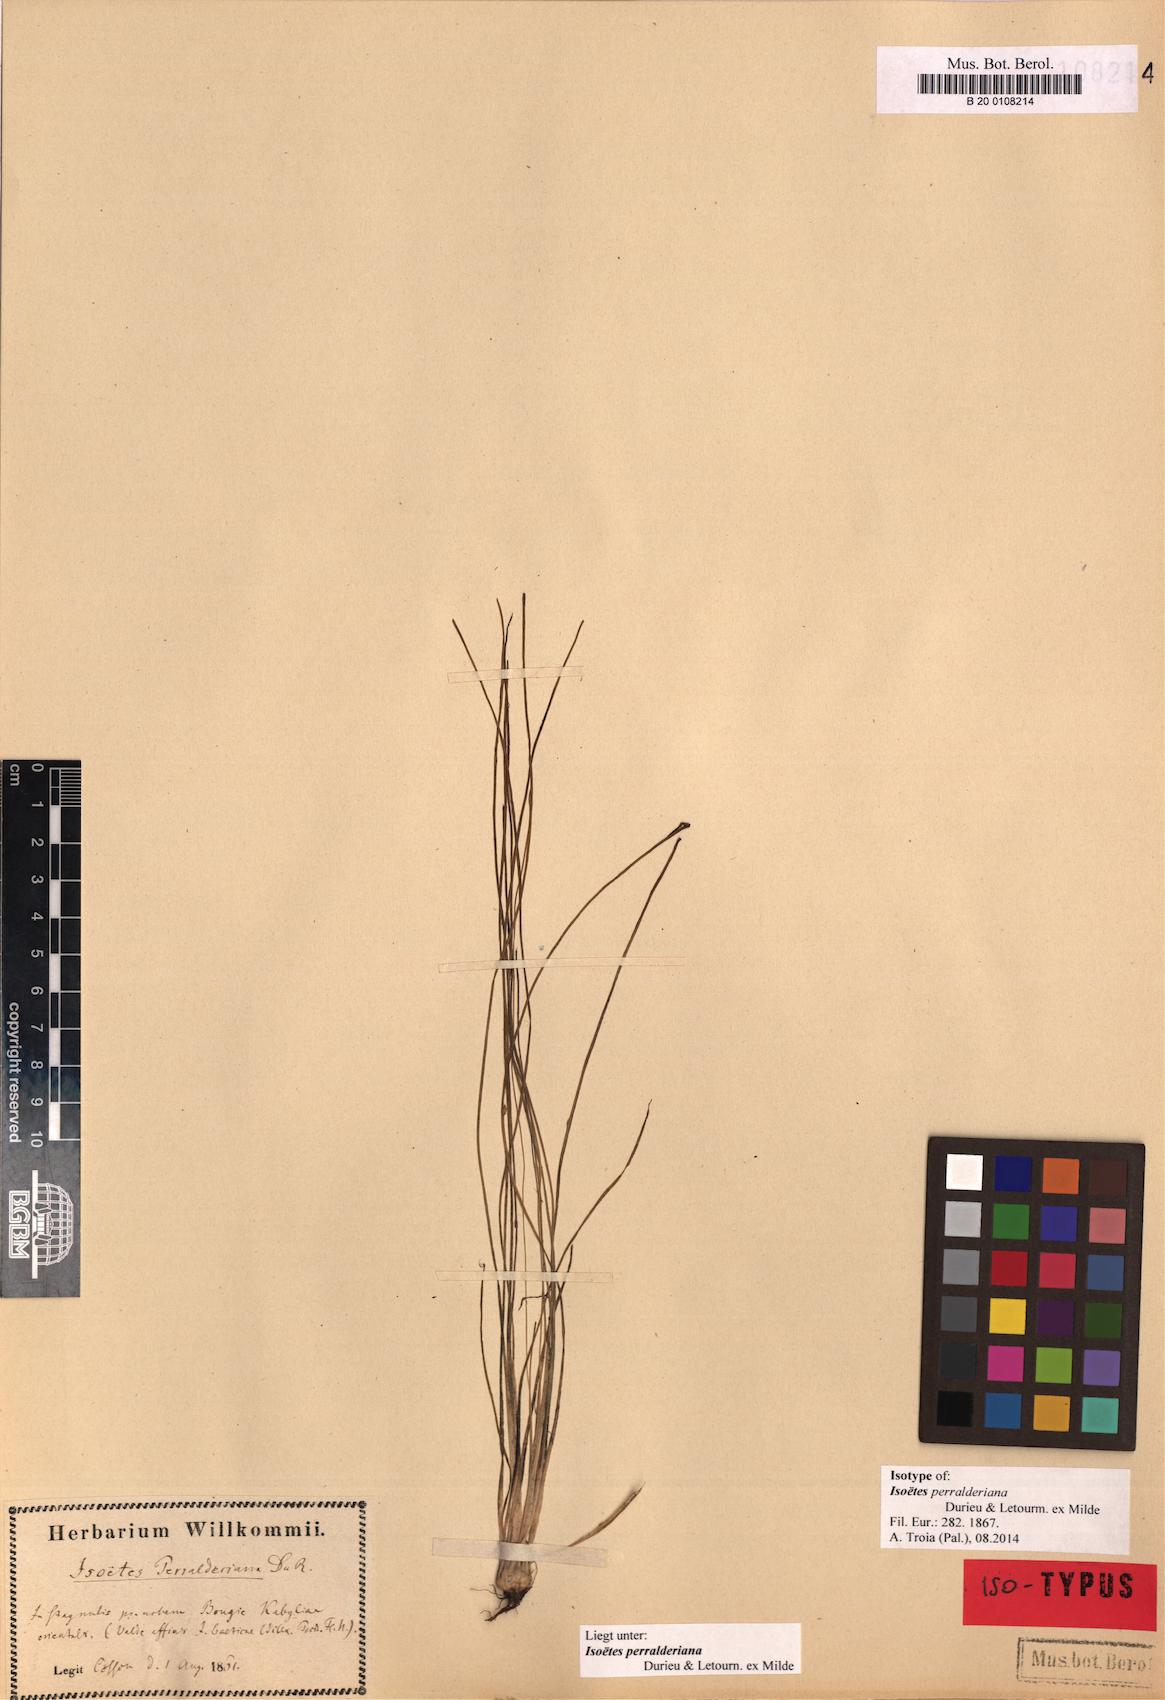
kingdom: Plantae
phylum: Tracheophyta
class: Lycopodiopsida
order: Isoetales
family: Isoetaceae
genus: Isoetes
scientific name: Isoetes longissima
